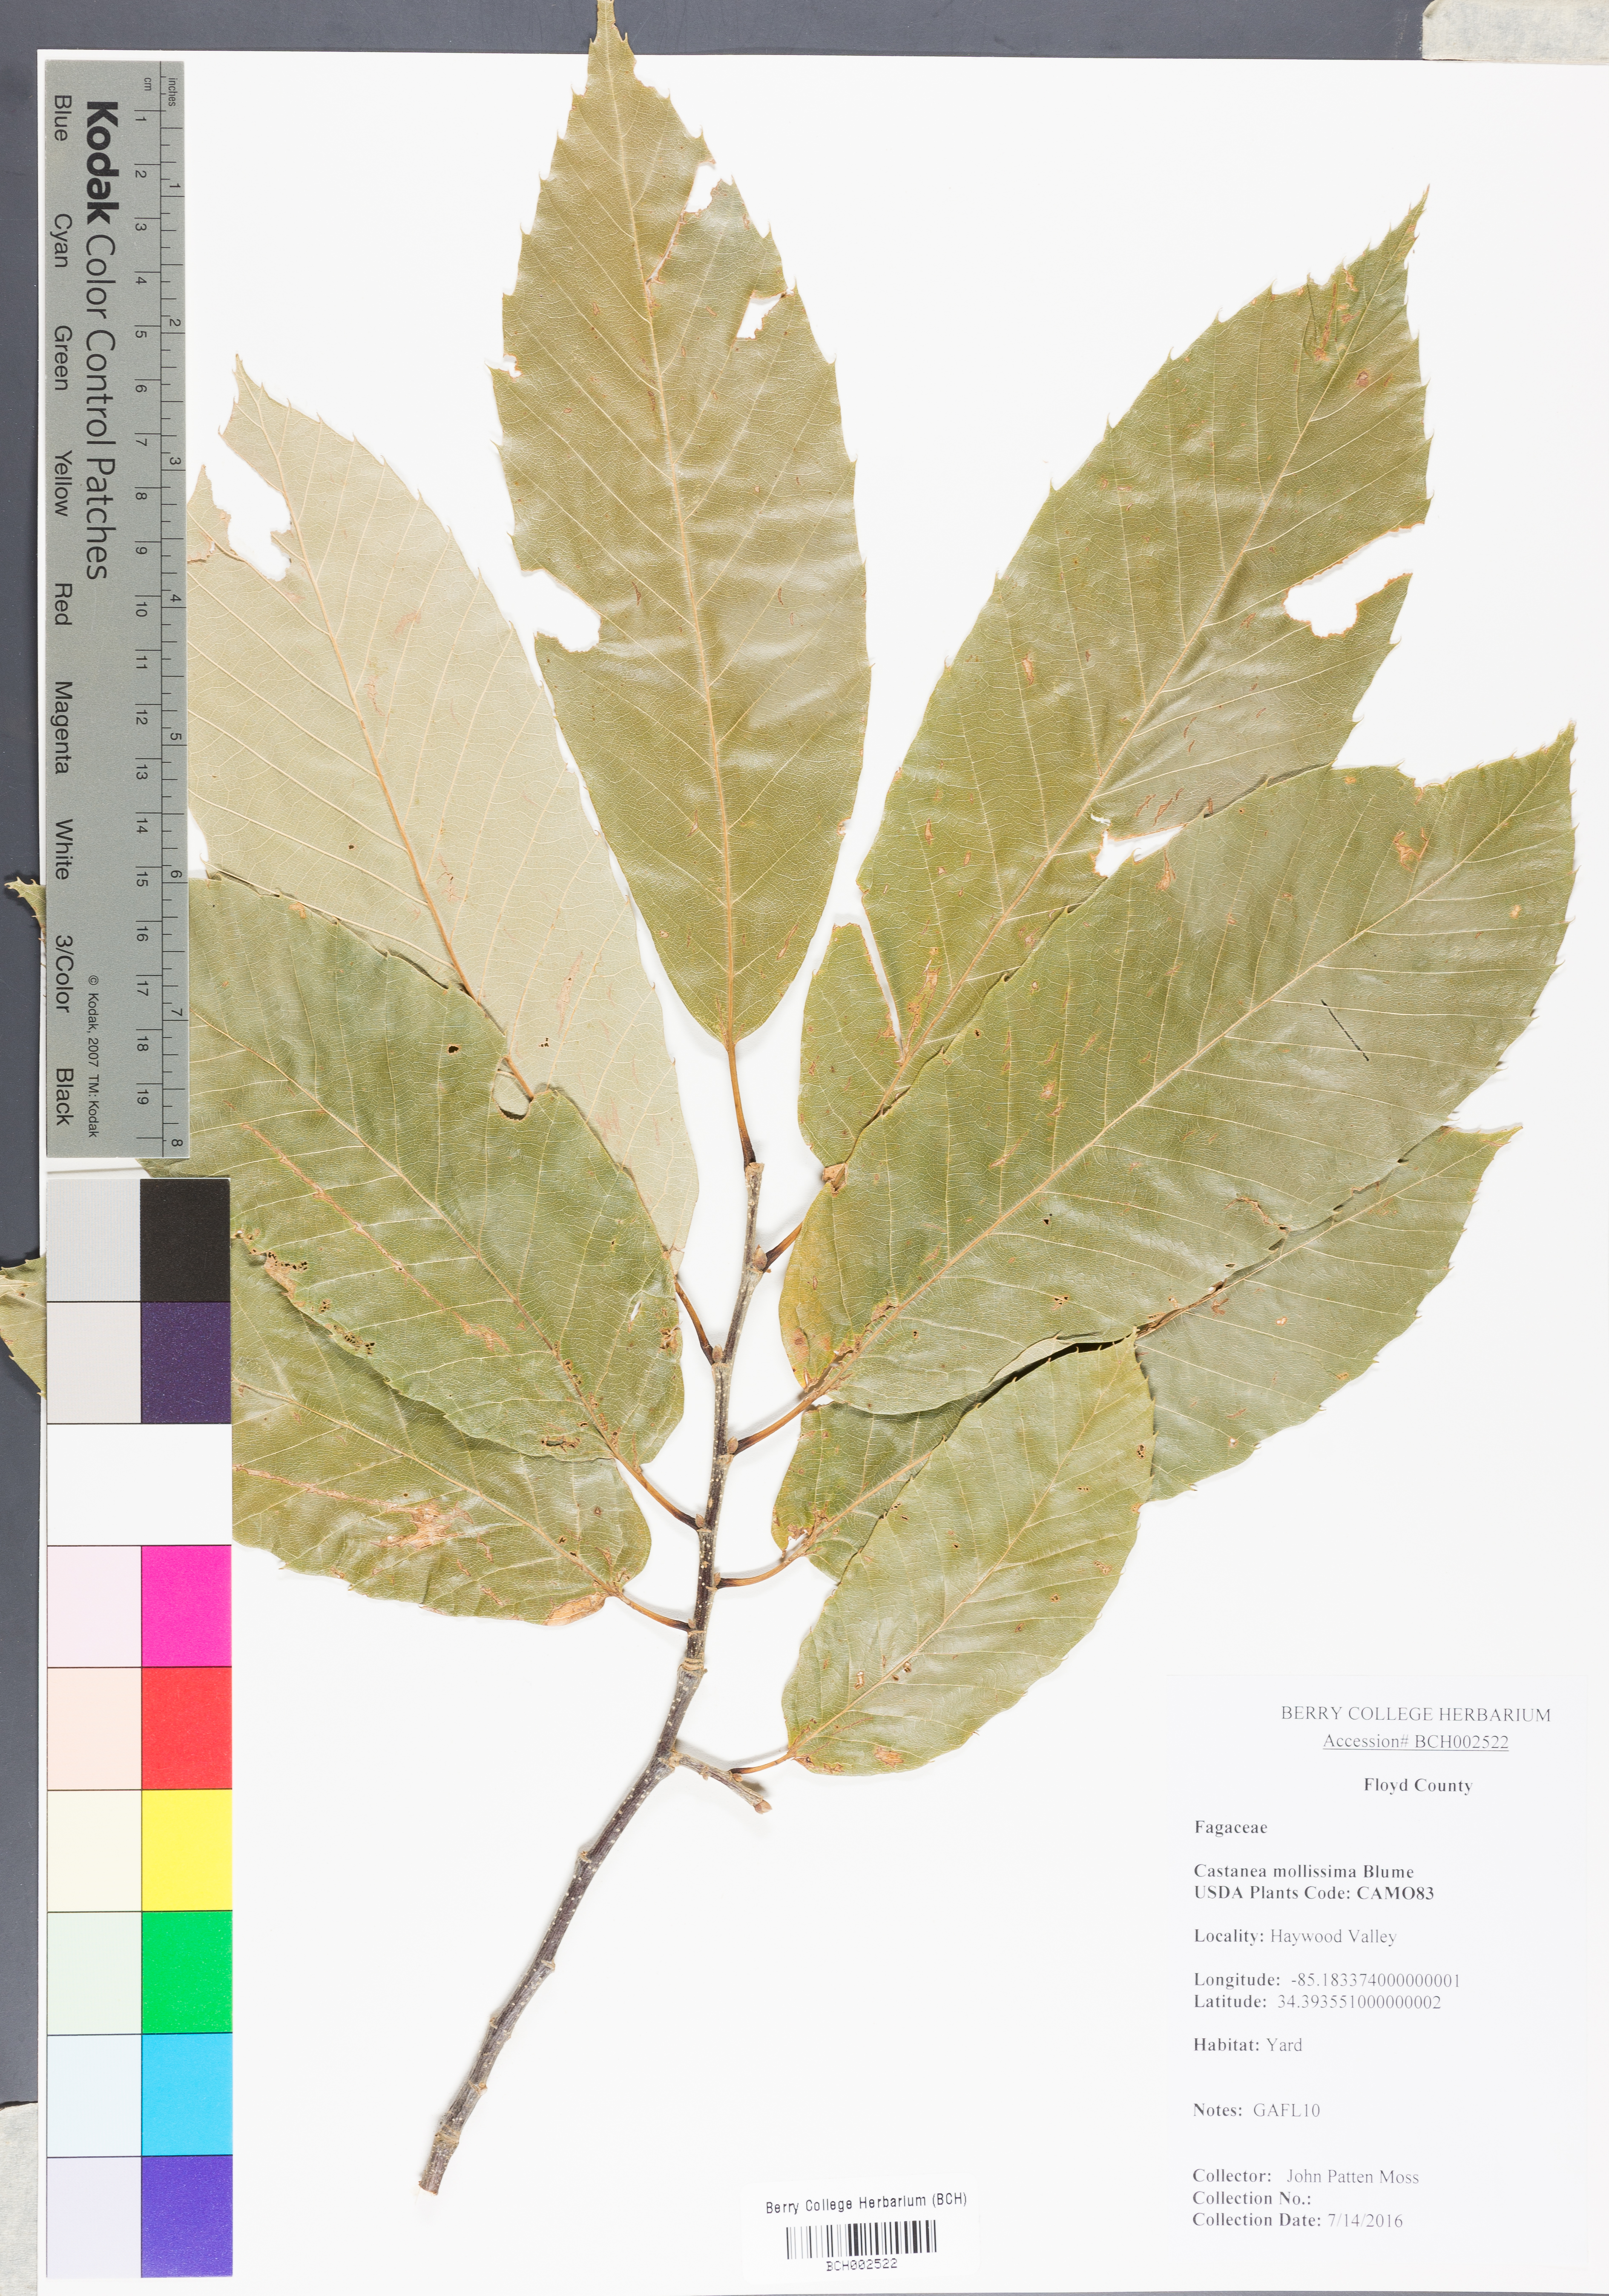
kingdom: Plantae
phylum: Tracheophyta
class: Magnoliopsida
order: Fagales
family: Fagaceae
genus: Castanea
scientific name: Castanea mollissima
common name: Chinese chestnut
